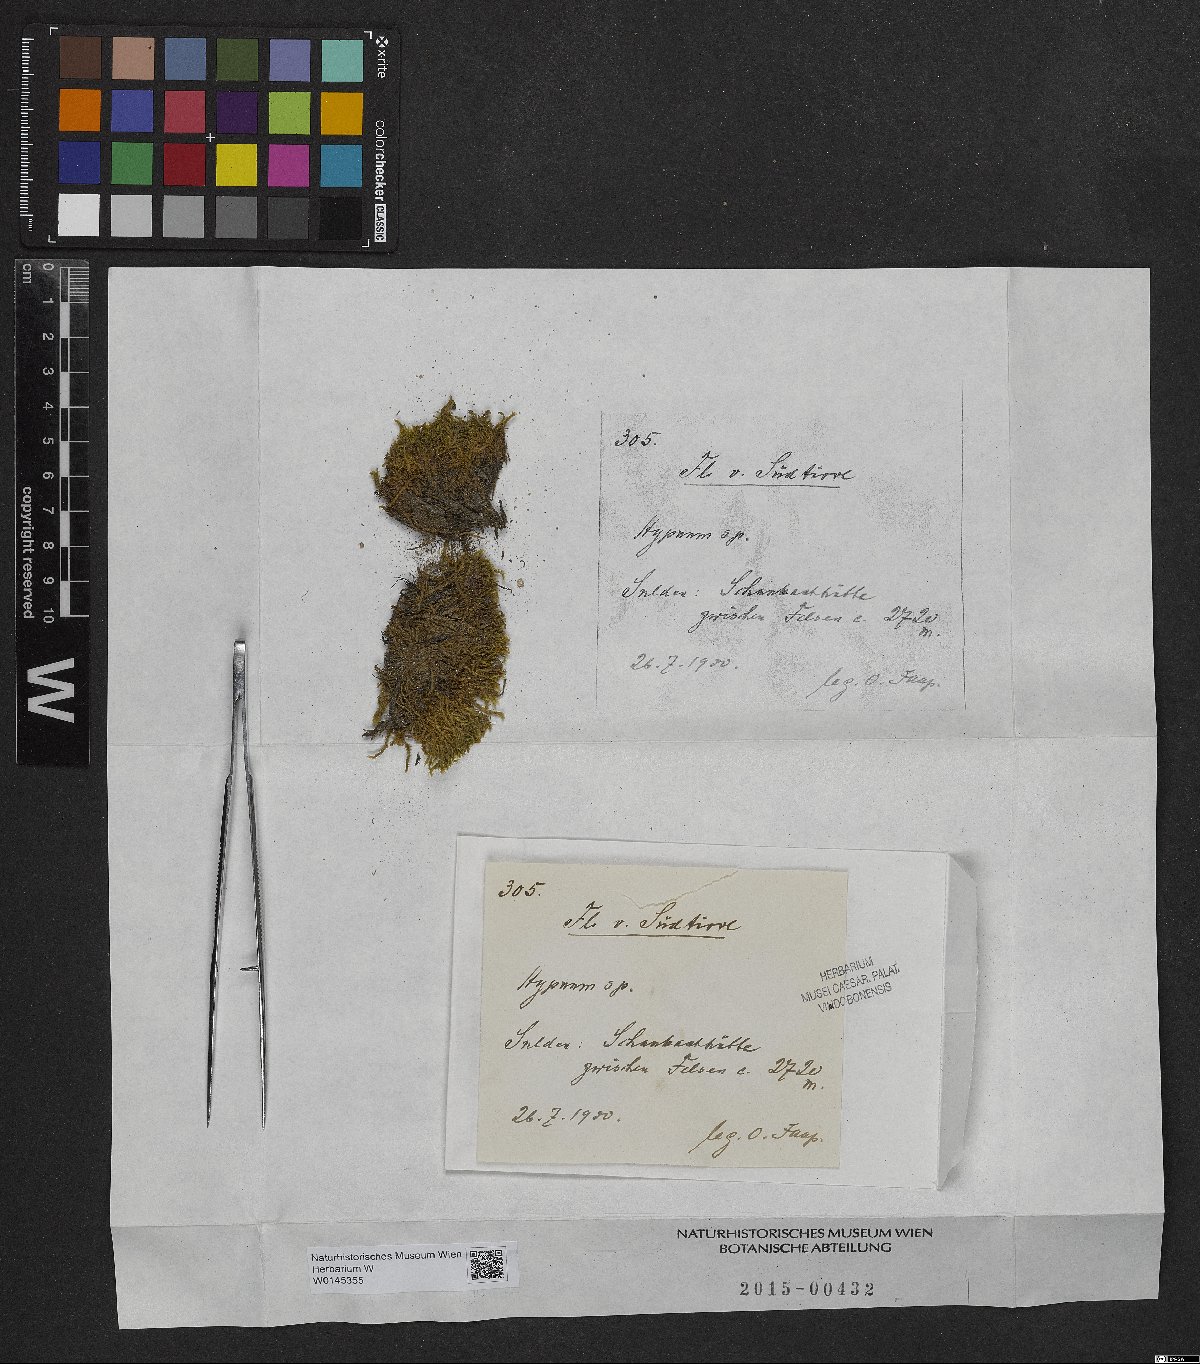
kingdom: Plantae
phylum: Bryophyta
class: Bryopsida
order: Hypnales
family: Hypnaceae
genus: Hypnum
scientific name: Hypnum
